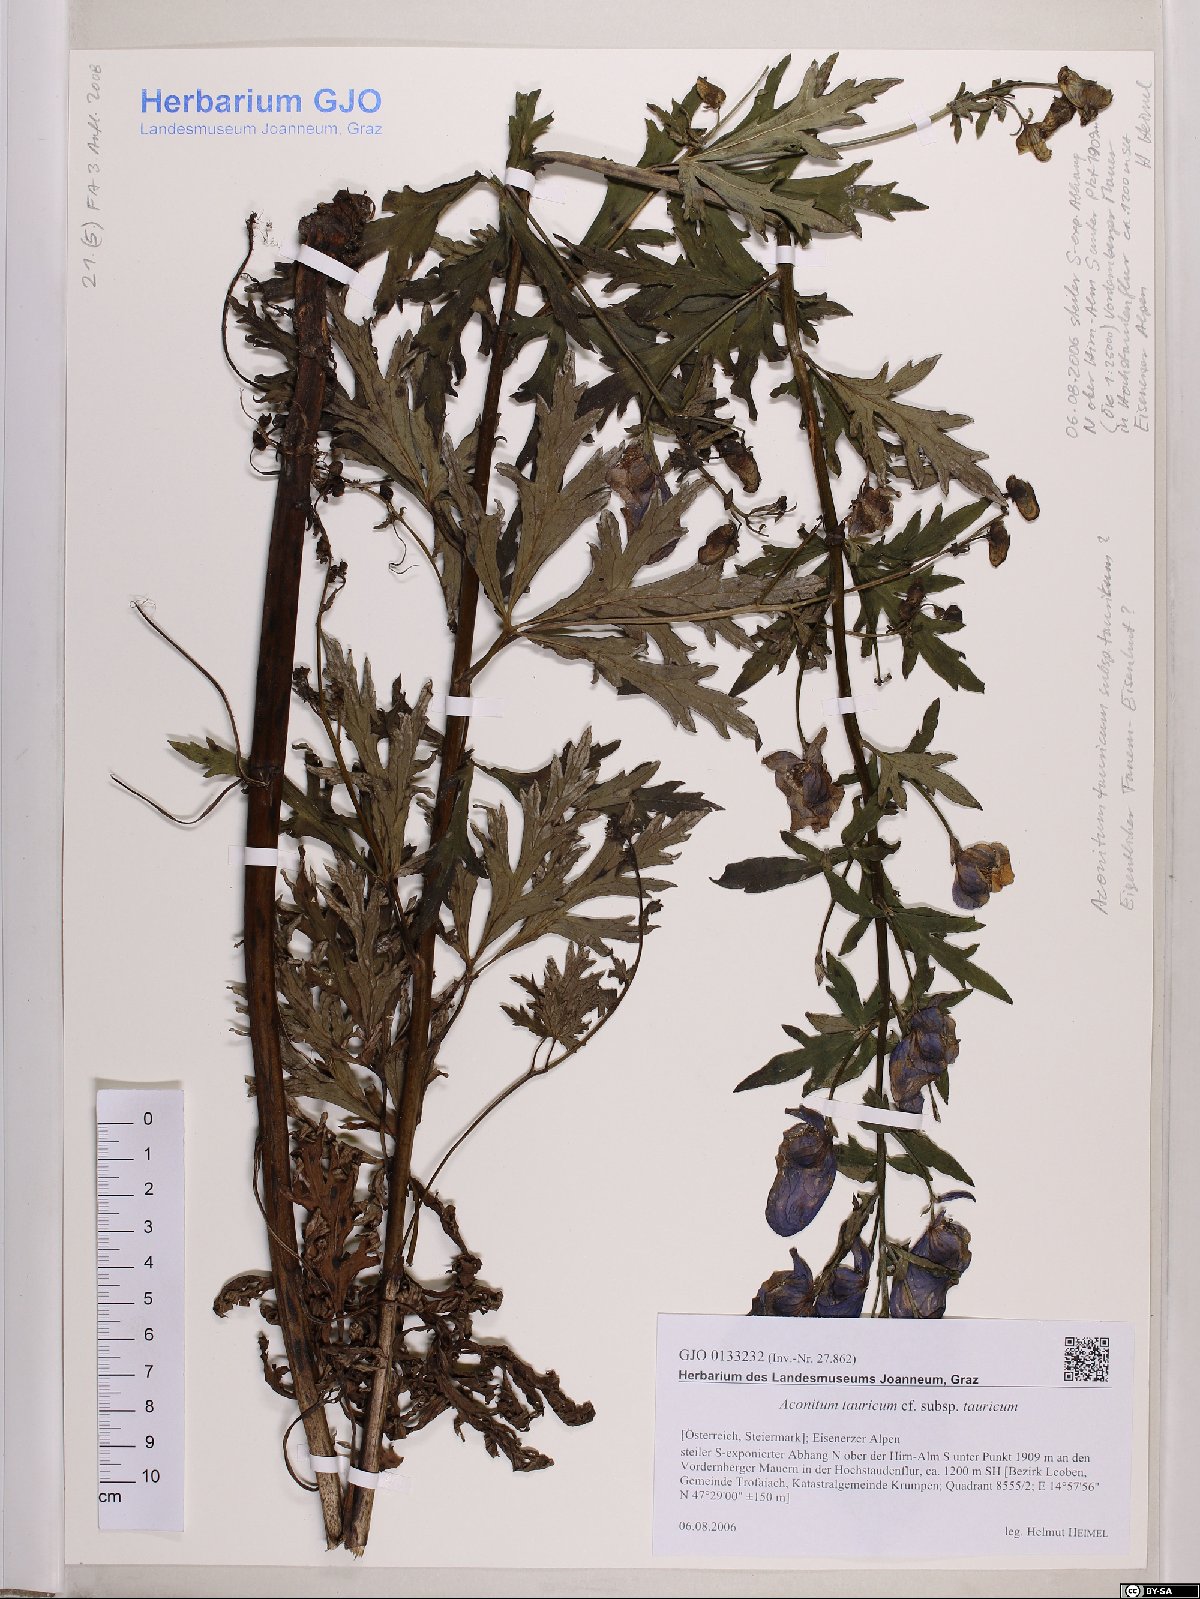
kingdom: Plantae
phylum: Tracheophyta
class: Magnoliopsida
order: Ranunculales
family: Ranunculaceae
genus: Aconitum
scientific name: Aconitum tauricum
